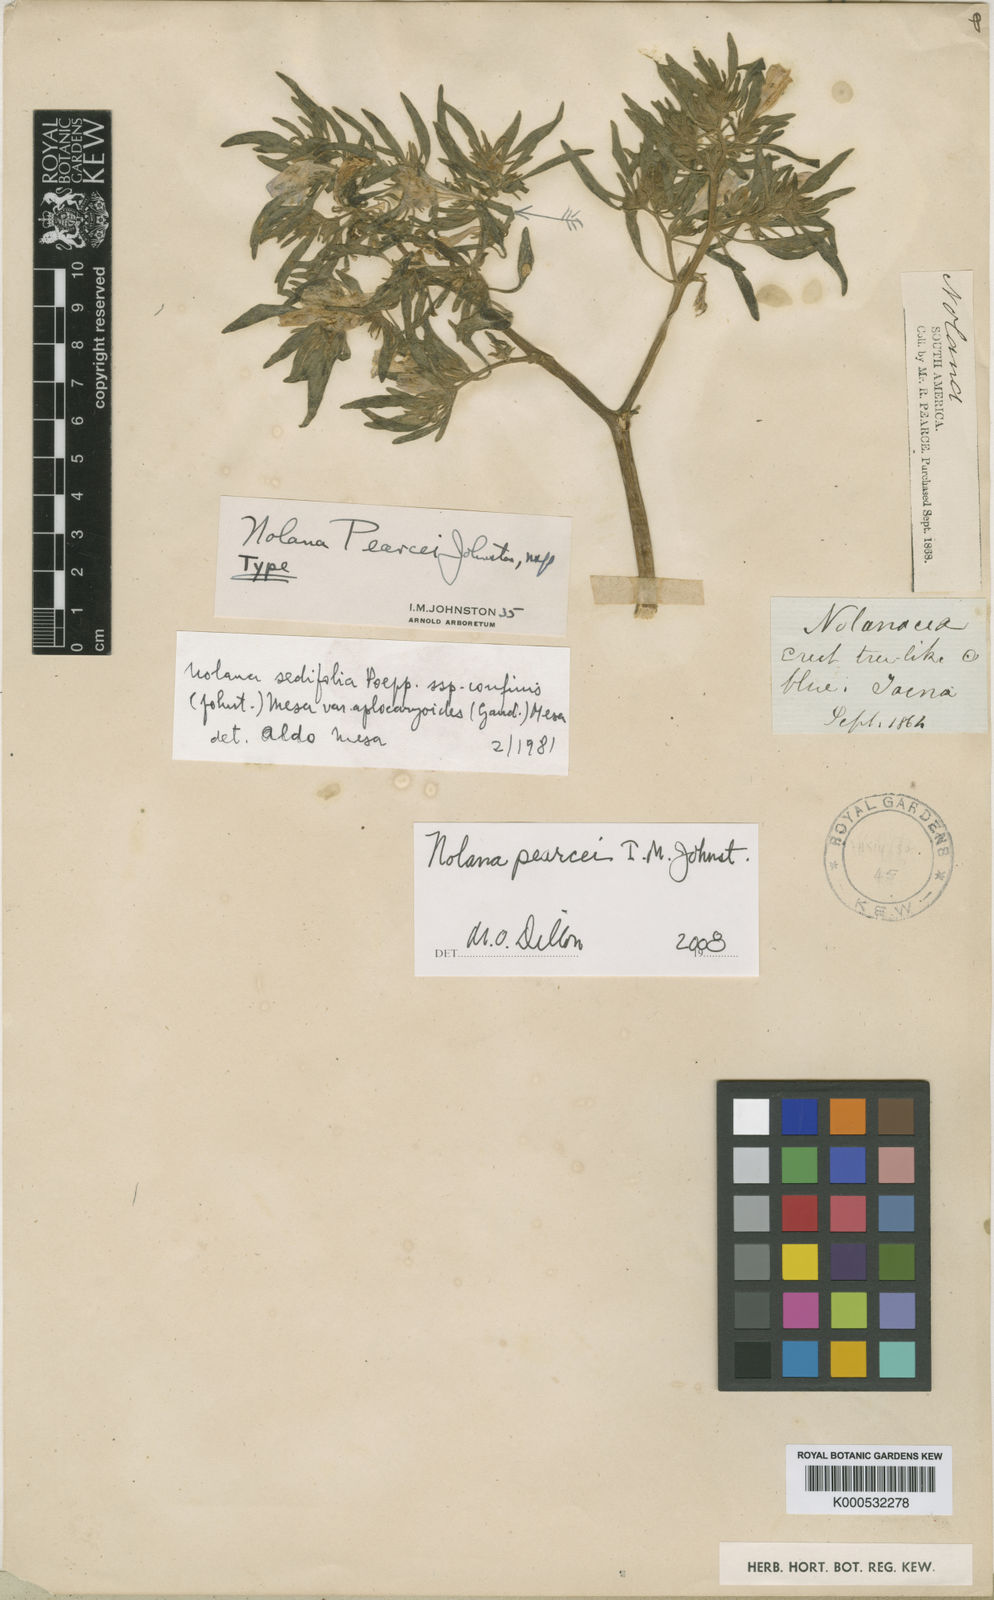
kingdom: Plantae
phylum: Tracheophyta
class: Magnoliopsida
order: Solanales
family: Solanaceae
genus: Nolana
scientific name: Nolana lycioides
